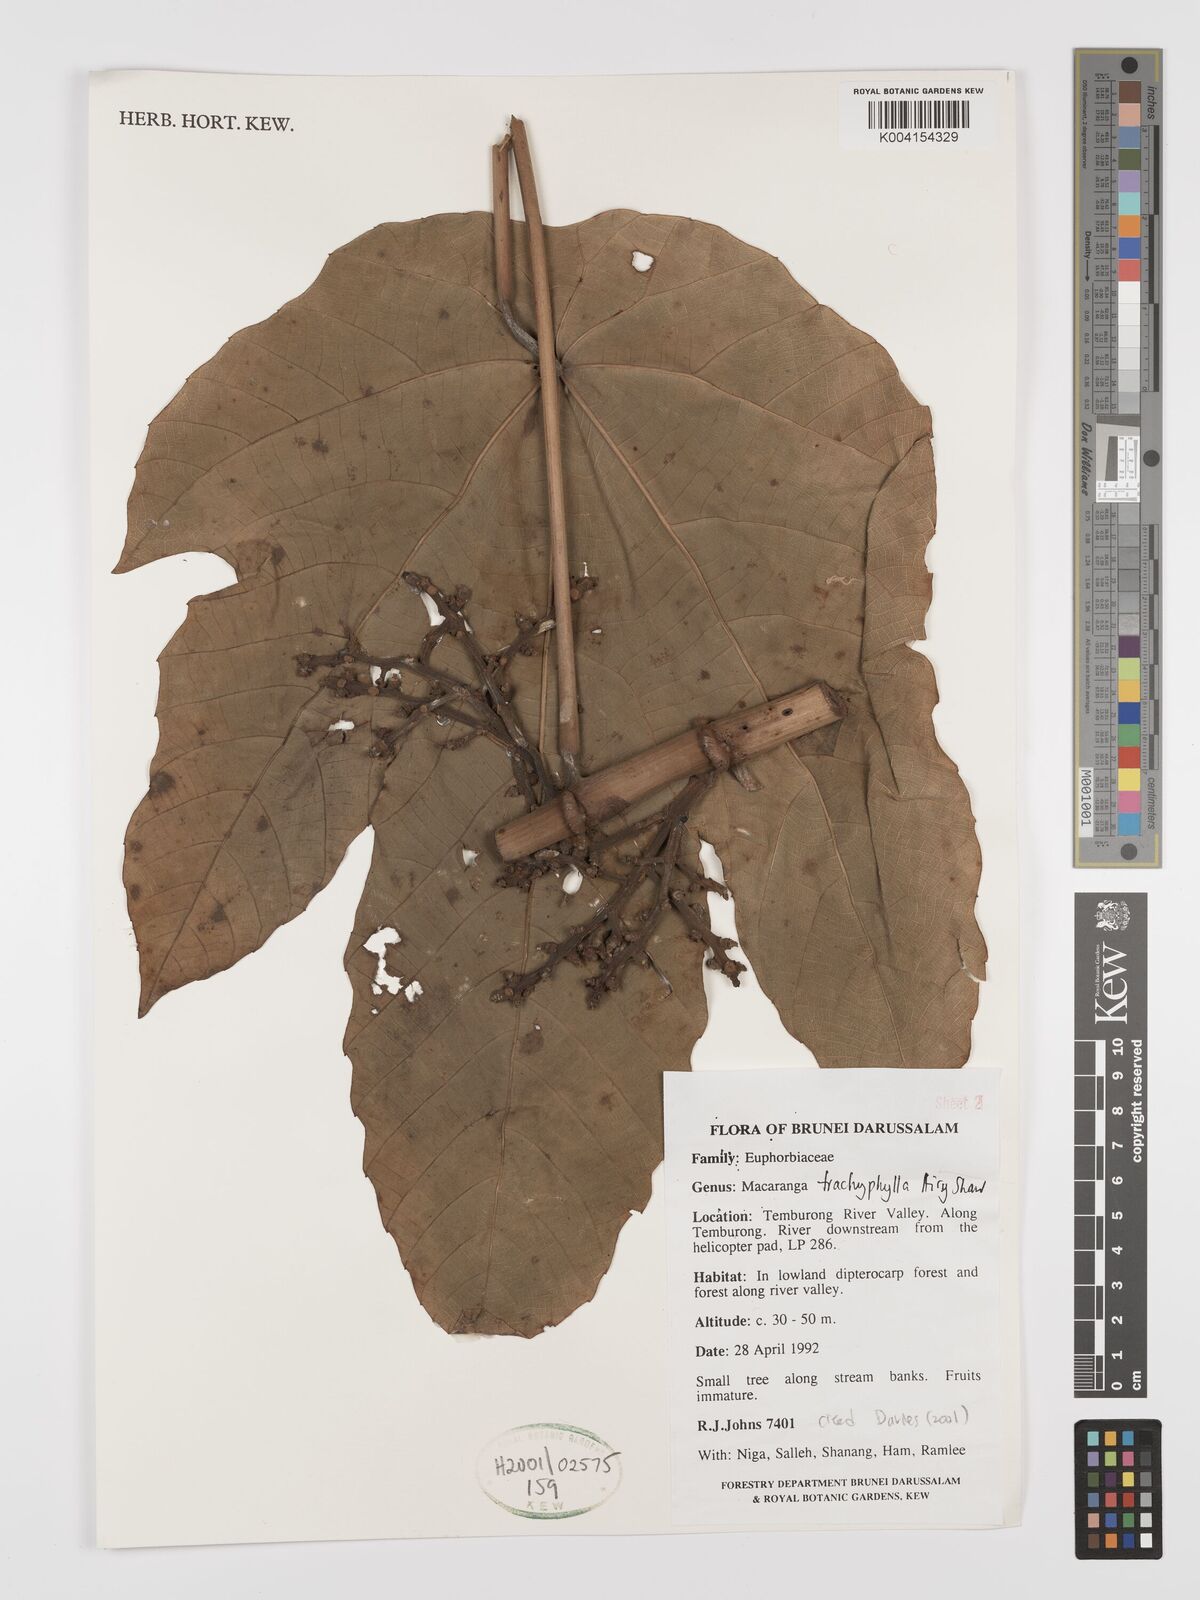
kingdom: Plantae
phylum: Tracheophyta
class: Magnoliopsida
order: Malpighiales
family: Euphorbiaceae
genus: Macaranga
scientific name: Macaranga trachyphylla
